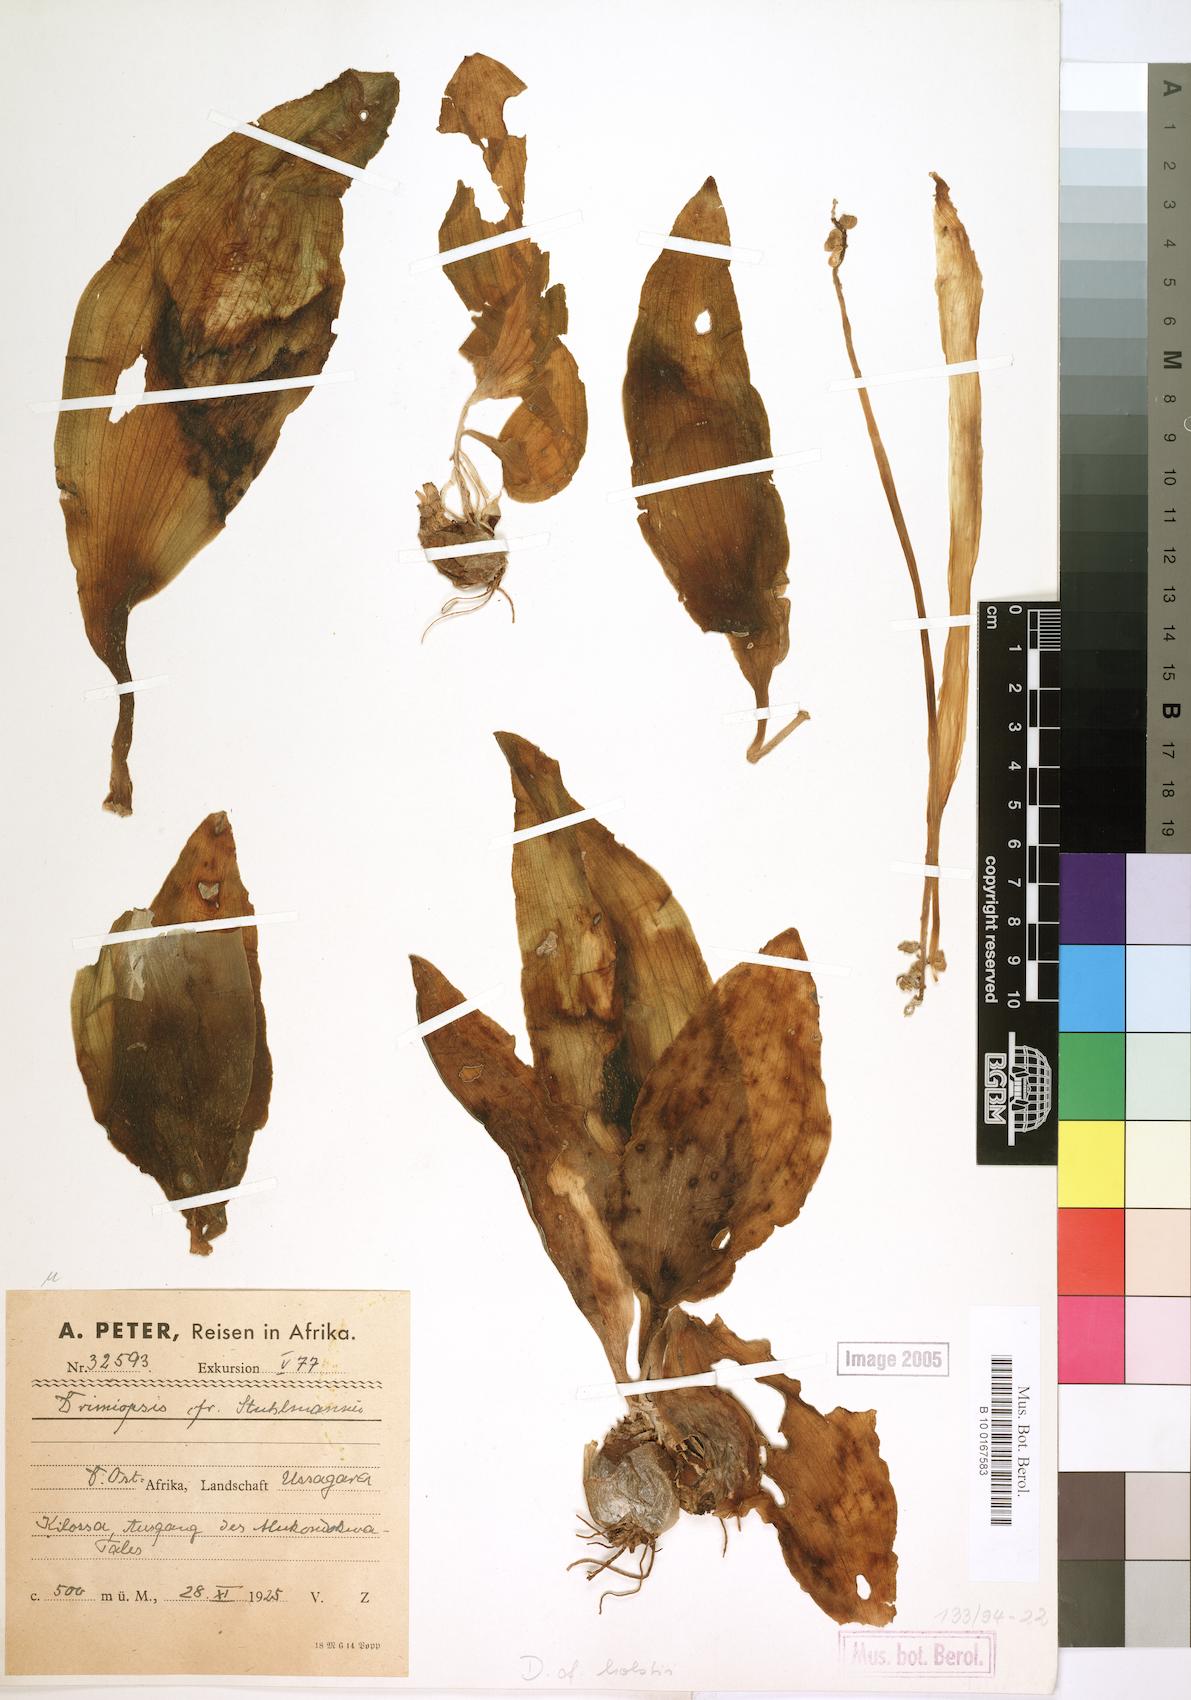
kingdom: Plantae
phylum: Tracheophyta
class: Liliopsida
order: Asparagales
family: Asparagaceae
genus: Drimiopsis
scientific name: Drimiopsis botryoides
